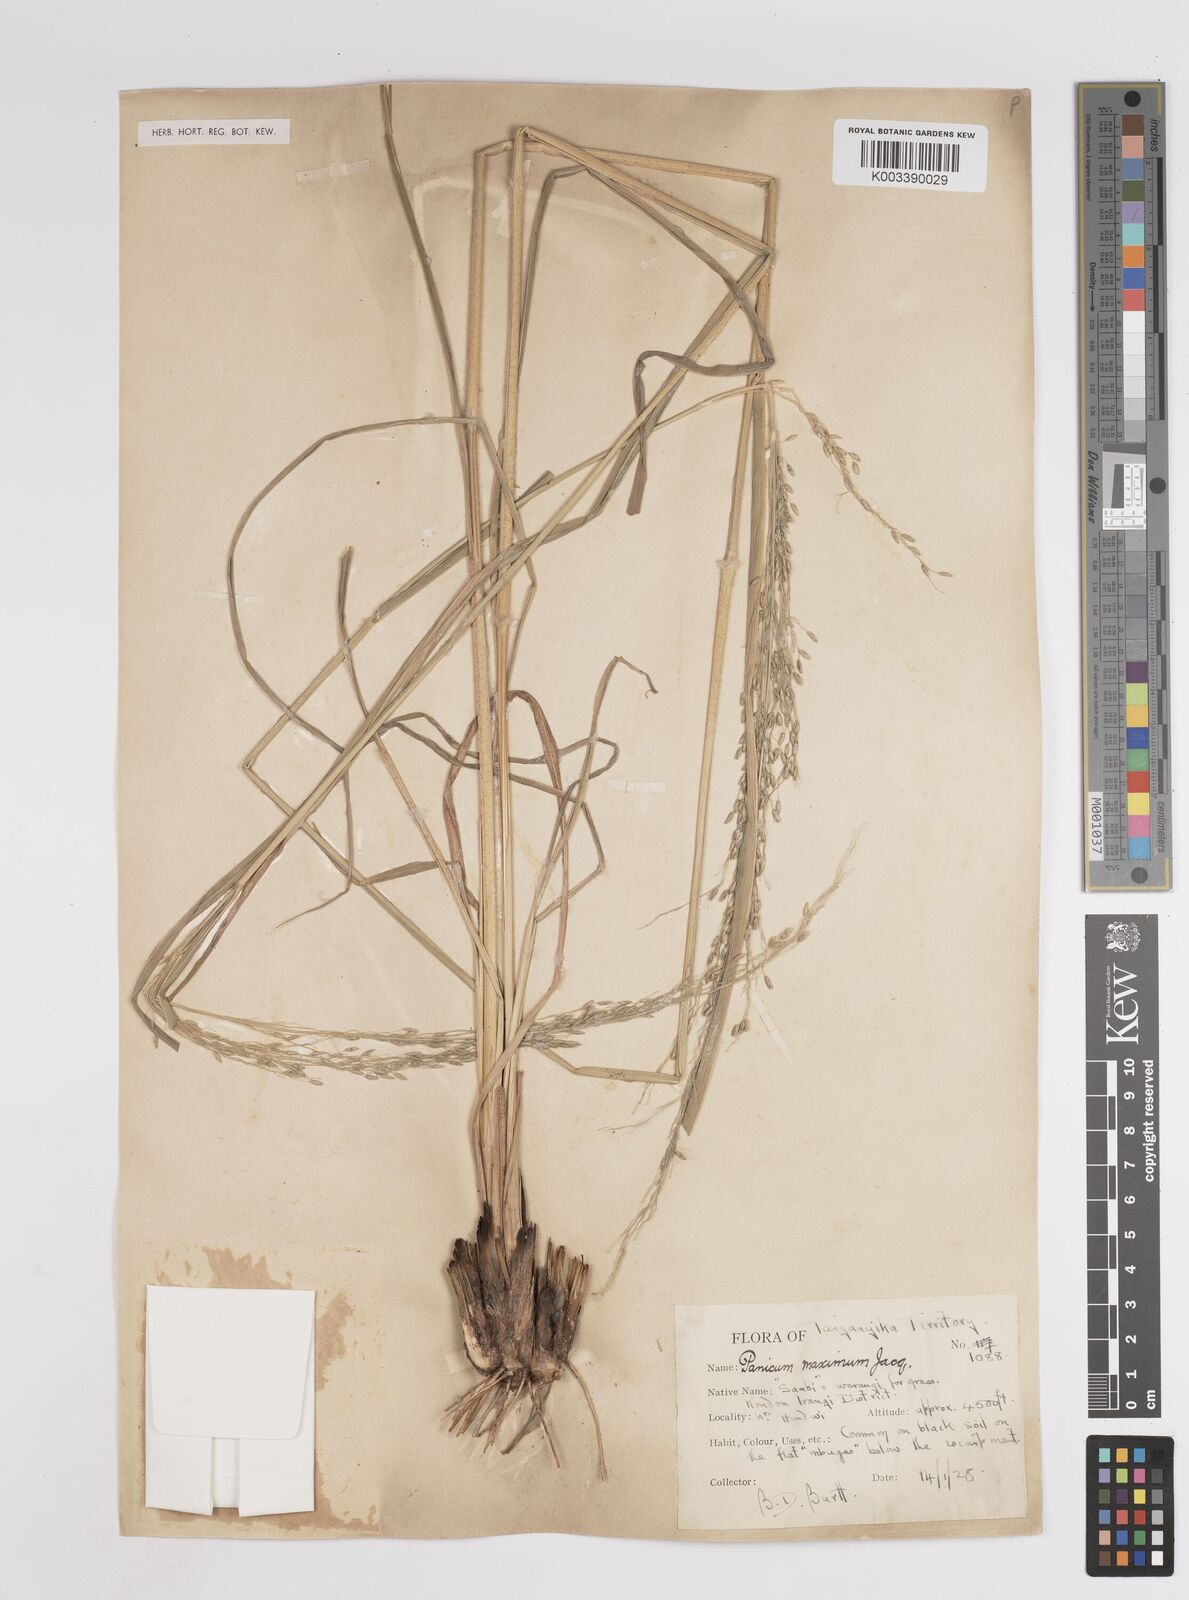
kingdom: Plantae
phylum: Tracheophyta
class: Liliopsida
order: Poales
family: Poaceae
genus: Megathyrsus
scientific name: Megathyrsus maximus
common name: Guineagrass
